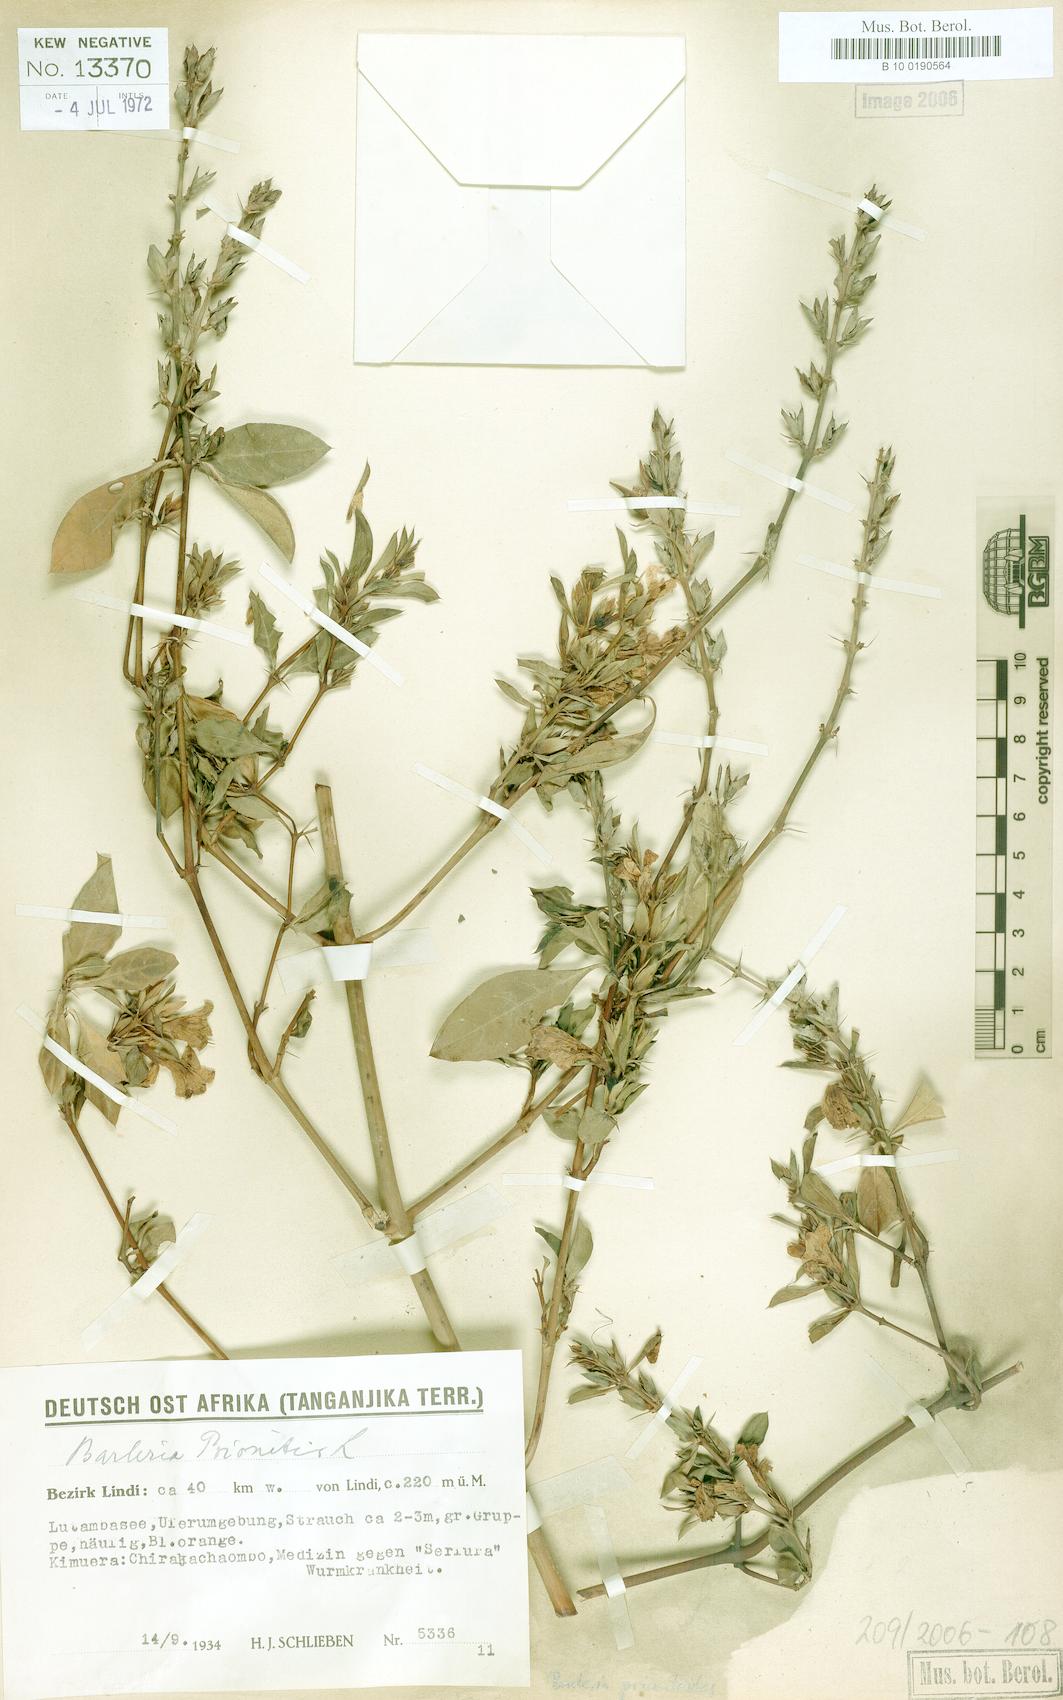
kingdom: Plantae
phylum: Tracheophyta
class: Magnoliopsida
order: Lamiales
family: Acanthaceae
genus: Barleria
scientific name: Barleria prionitis
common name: Barleria
